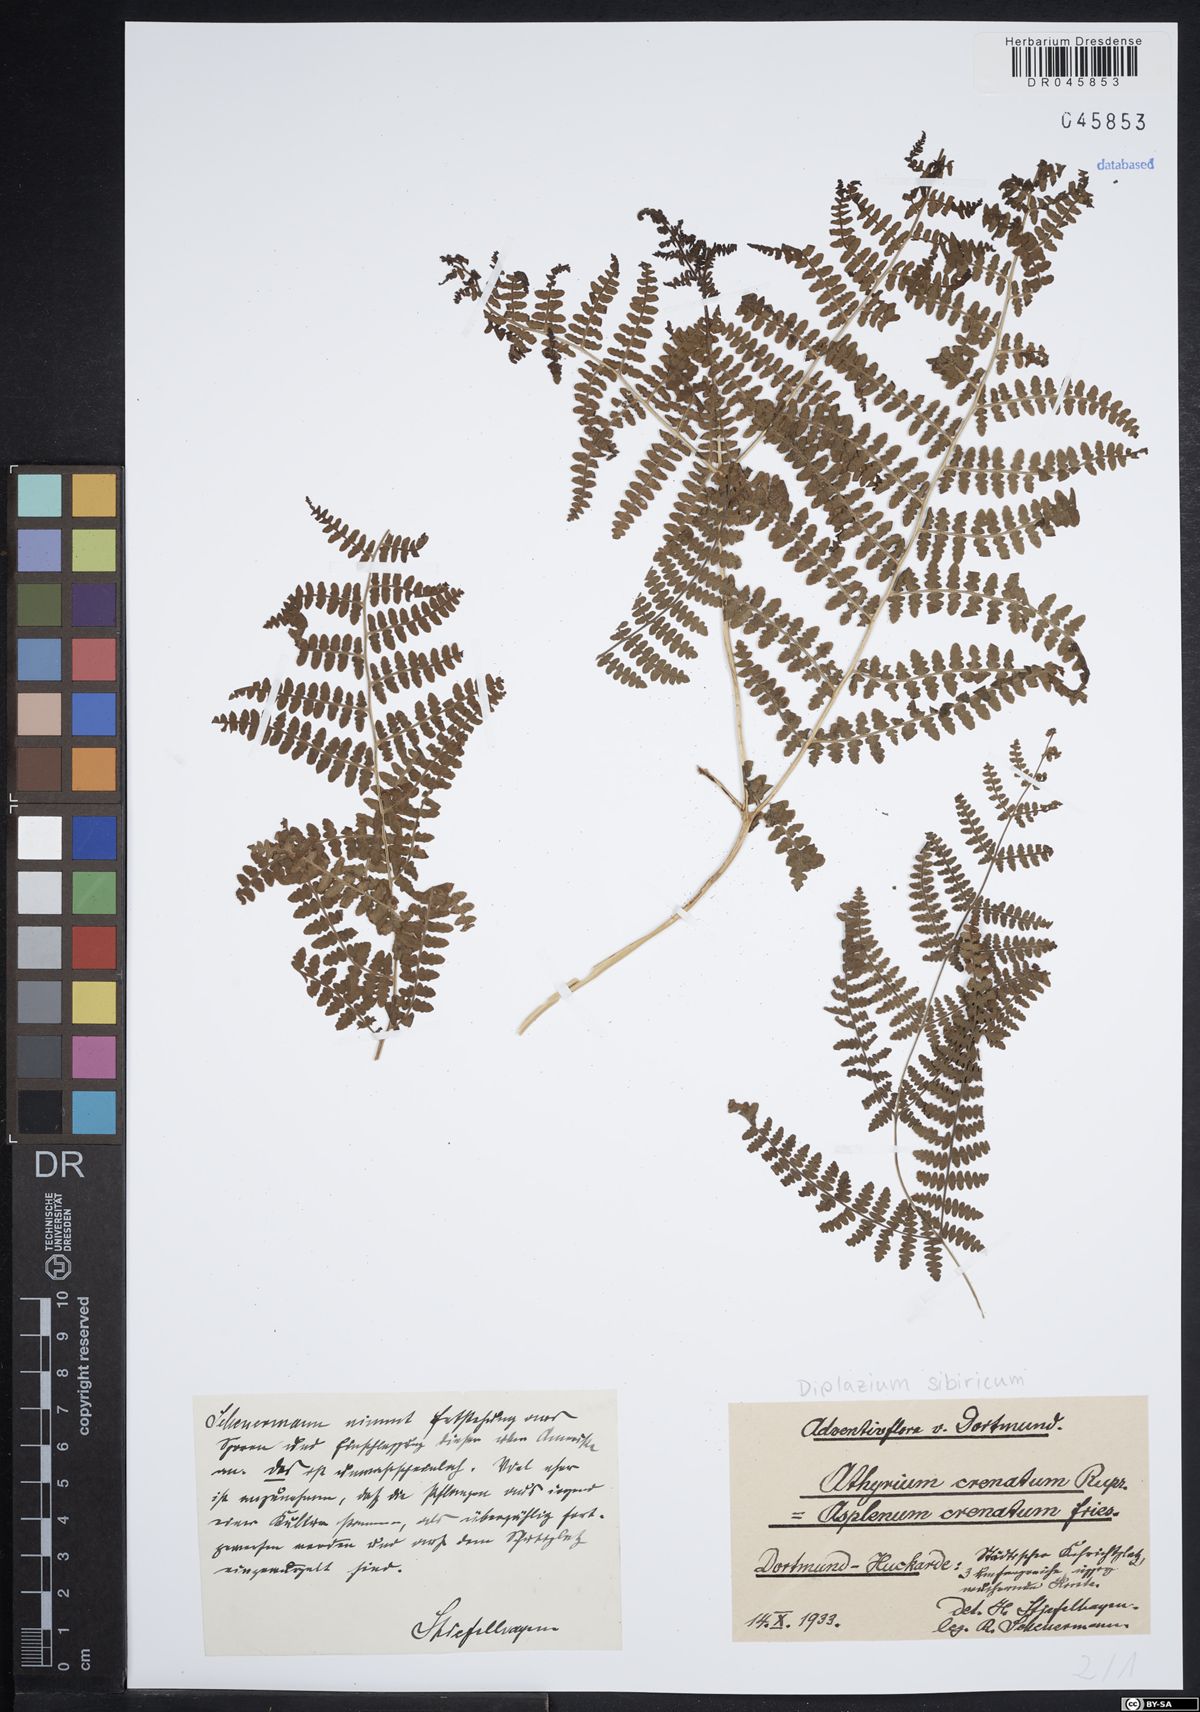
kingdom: Plantae
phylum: Tracheophyta
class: Polypodiopsida
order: Polypodiales
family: Athyriaceae
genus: Diplazium
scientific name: Diplazium sibiricum
